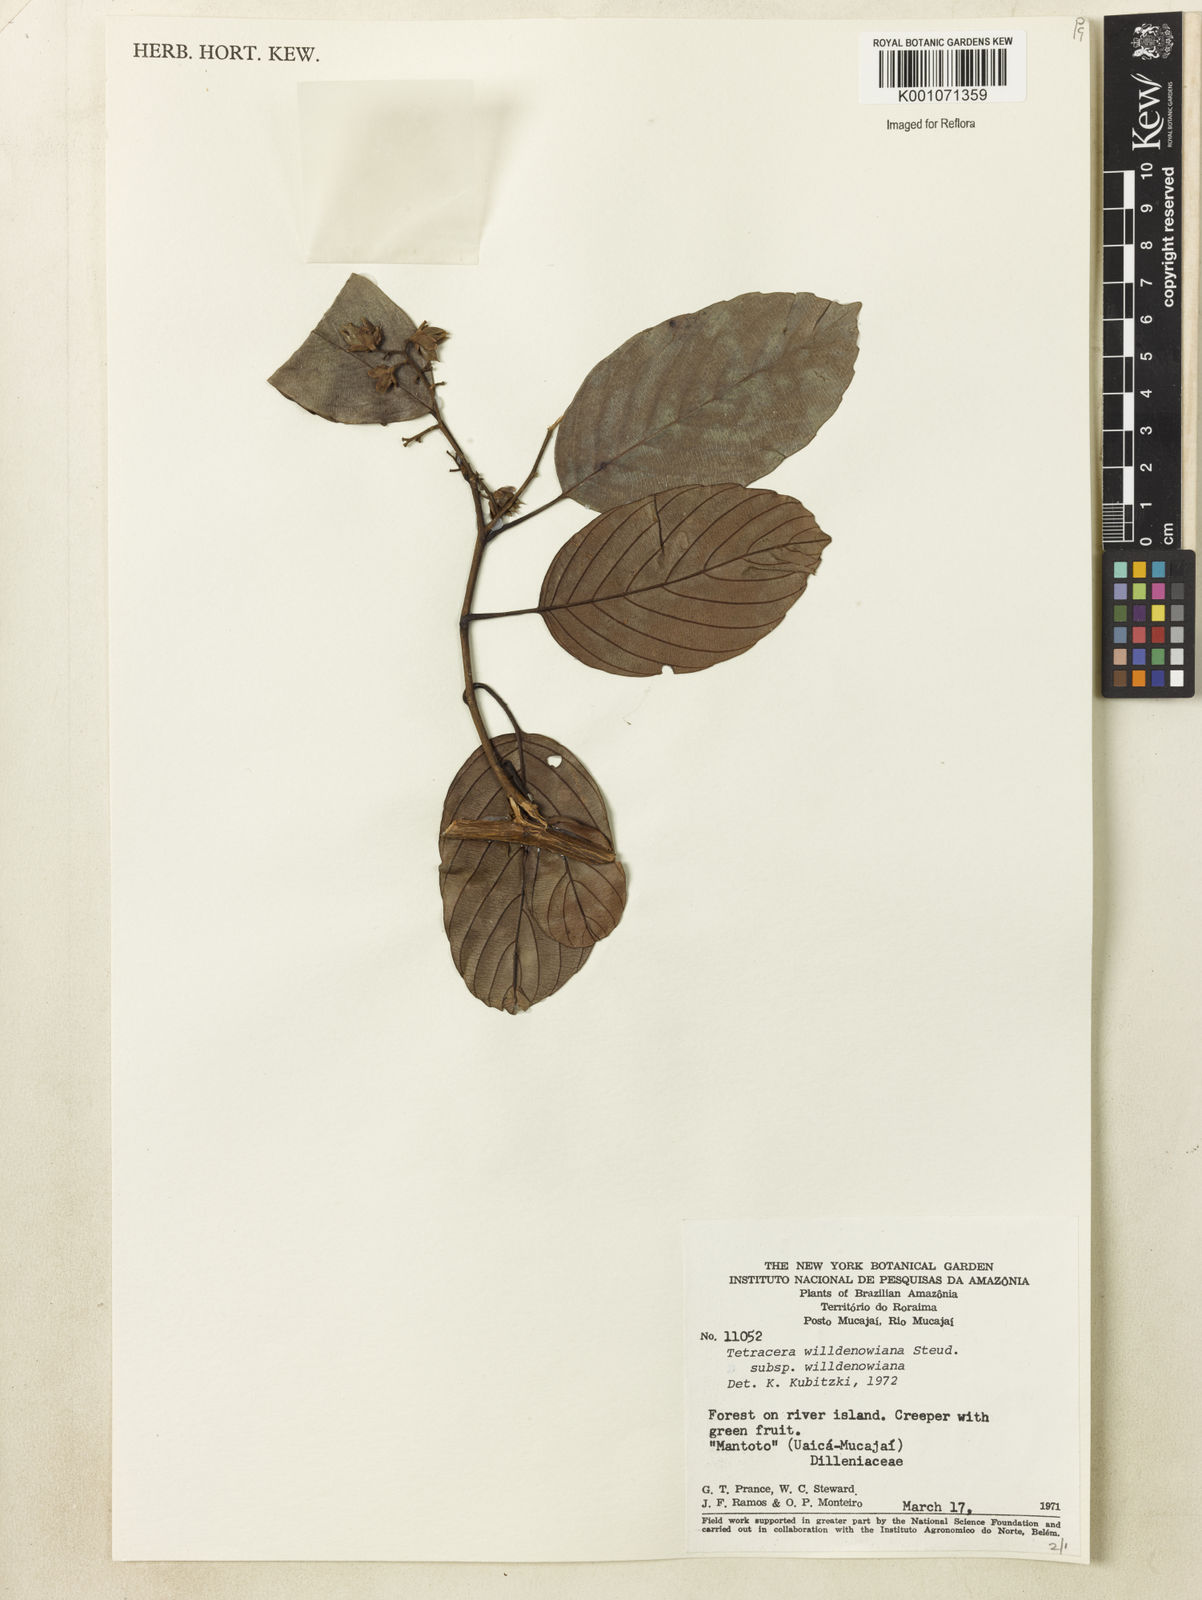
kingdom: Plantae
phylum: Tracheophyta
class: Magnoliopsida
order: Dilleniales
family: Dilleniaceae
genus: Tetracera
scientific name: Tetracera willdenowiana
